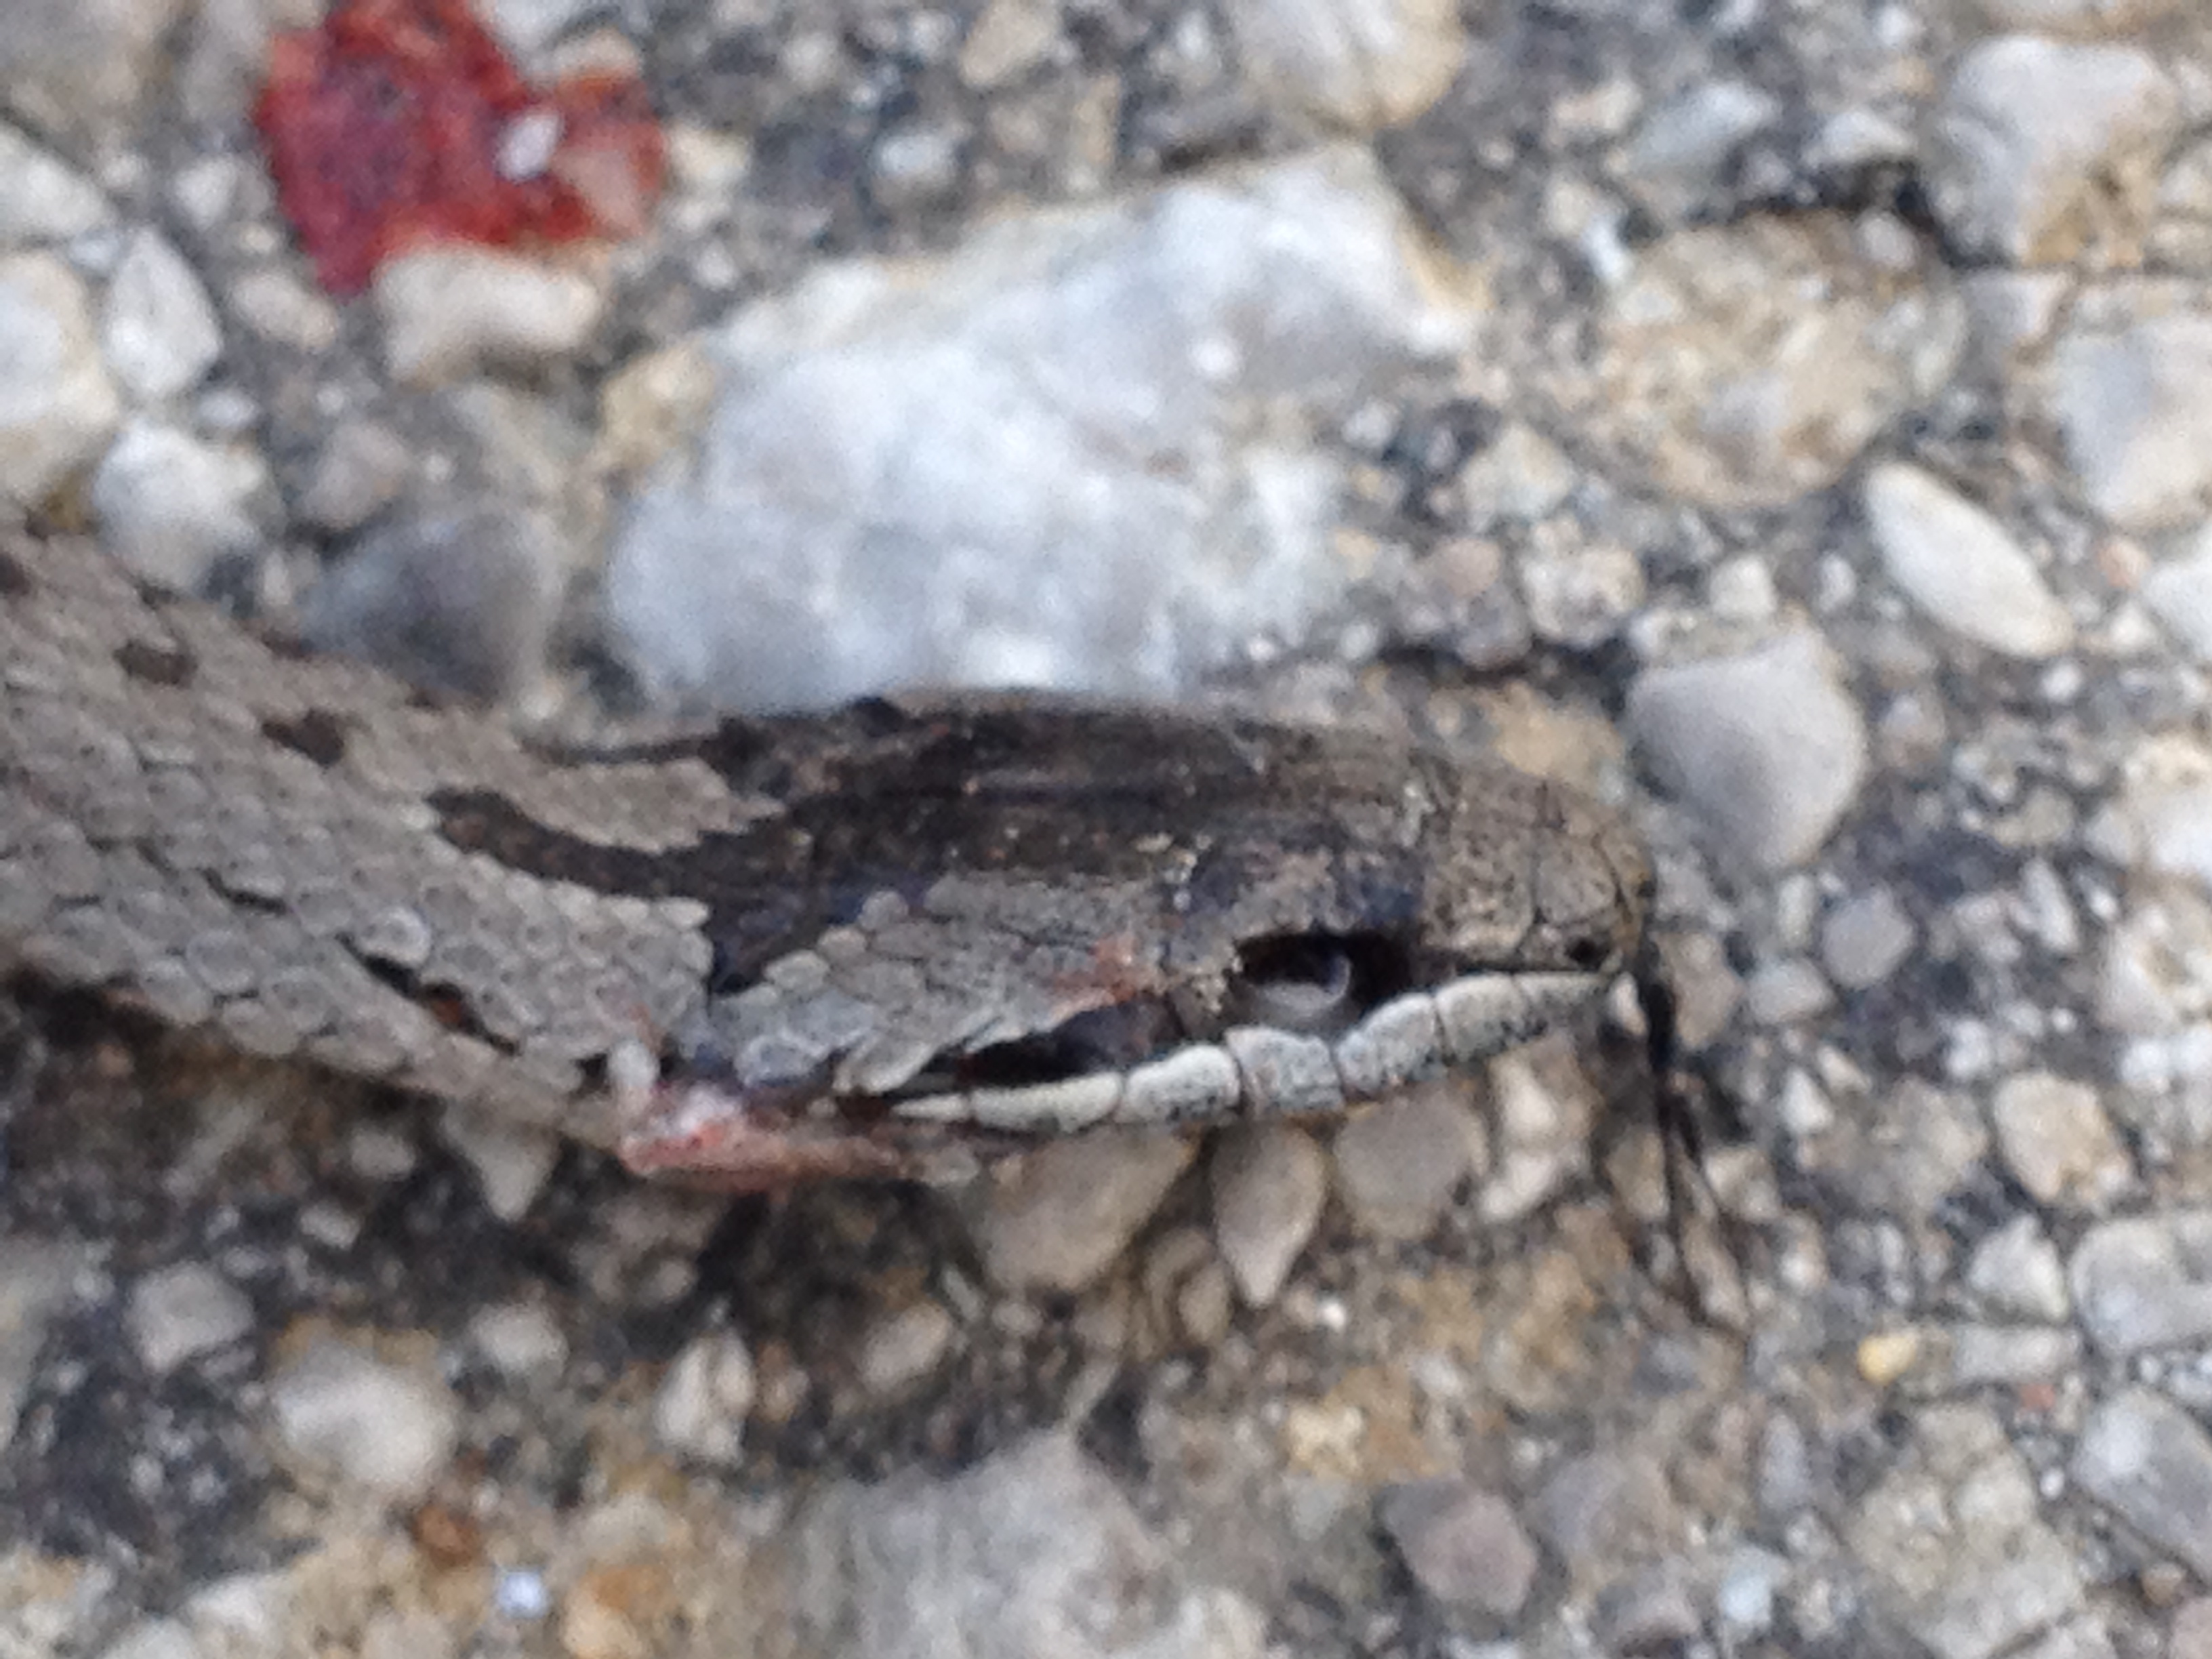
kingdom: Animalia
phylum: Chordata
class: Squamata
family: Colubridae
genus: Coronella
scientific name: Coronella austriaca
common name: Smooth snake
